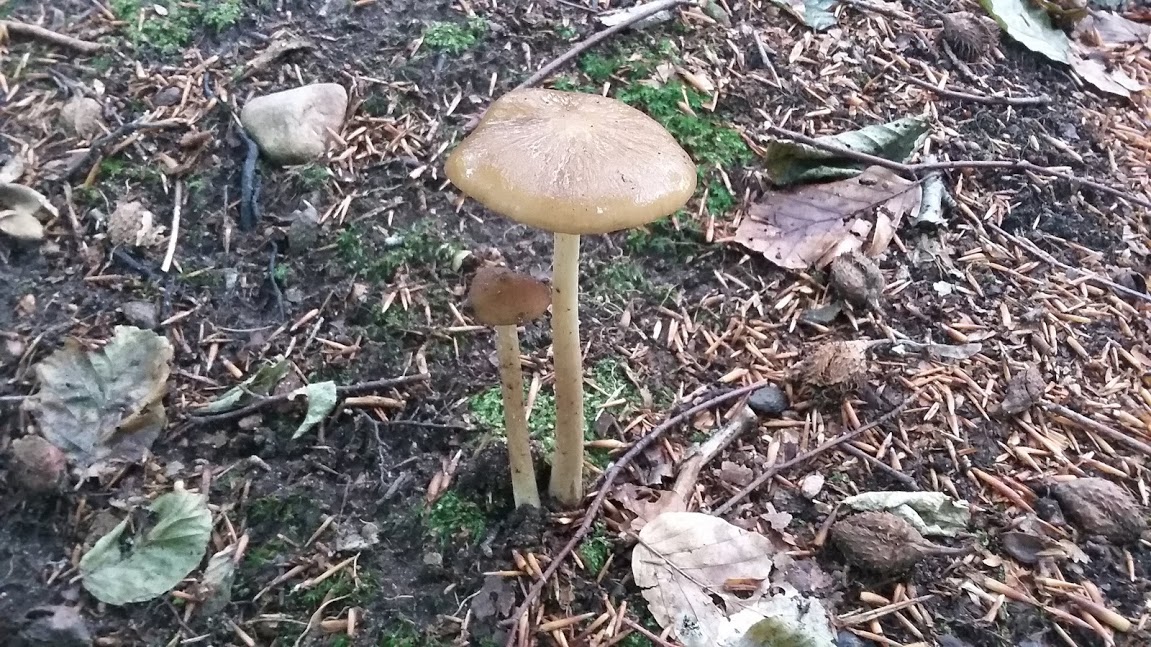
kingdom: Fungi
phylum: Basidiomycota
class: Agaricomycetes
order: Agaricales
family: Physalacriaceae
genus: Hymenopellis
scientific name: Hymenopellis radicata
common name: almindelig pælerodshat
